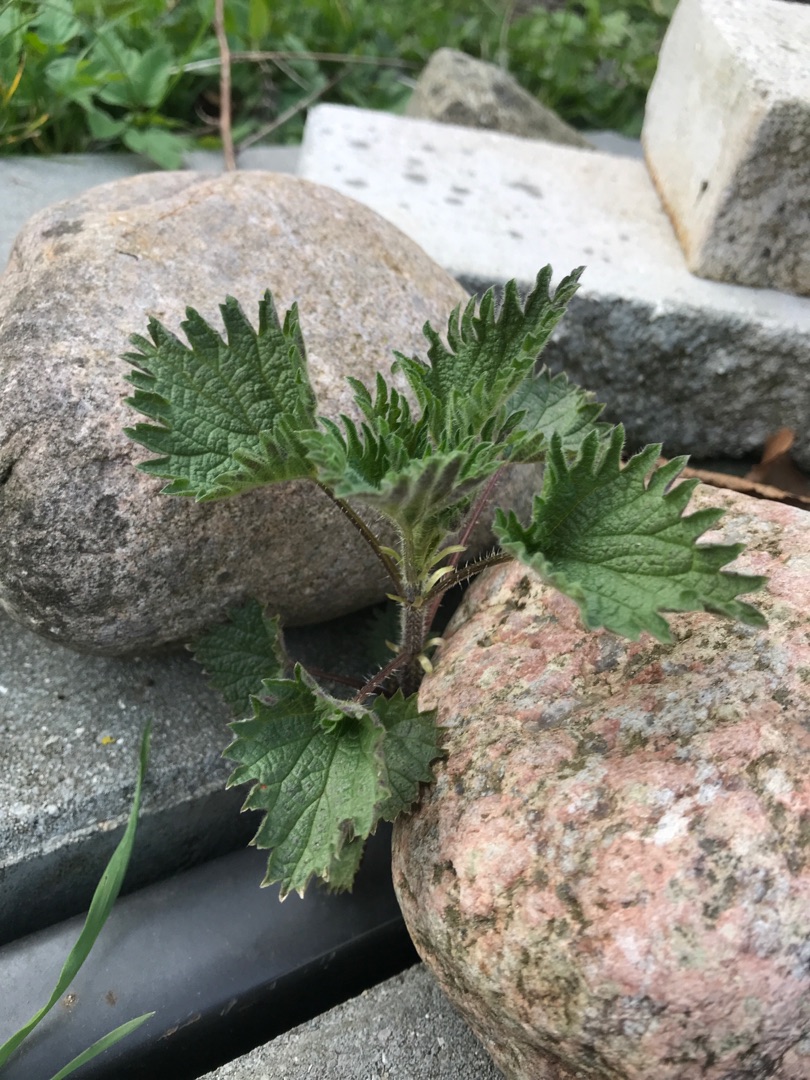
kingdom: Plantae
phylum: Tracheophyta
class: Magnoliopsida
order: Rosales
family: Urticaceae
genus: Urtica
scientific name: Urtica dioica
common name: Stor nælde
